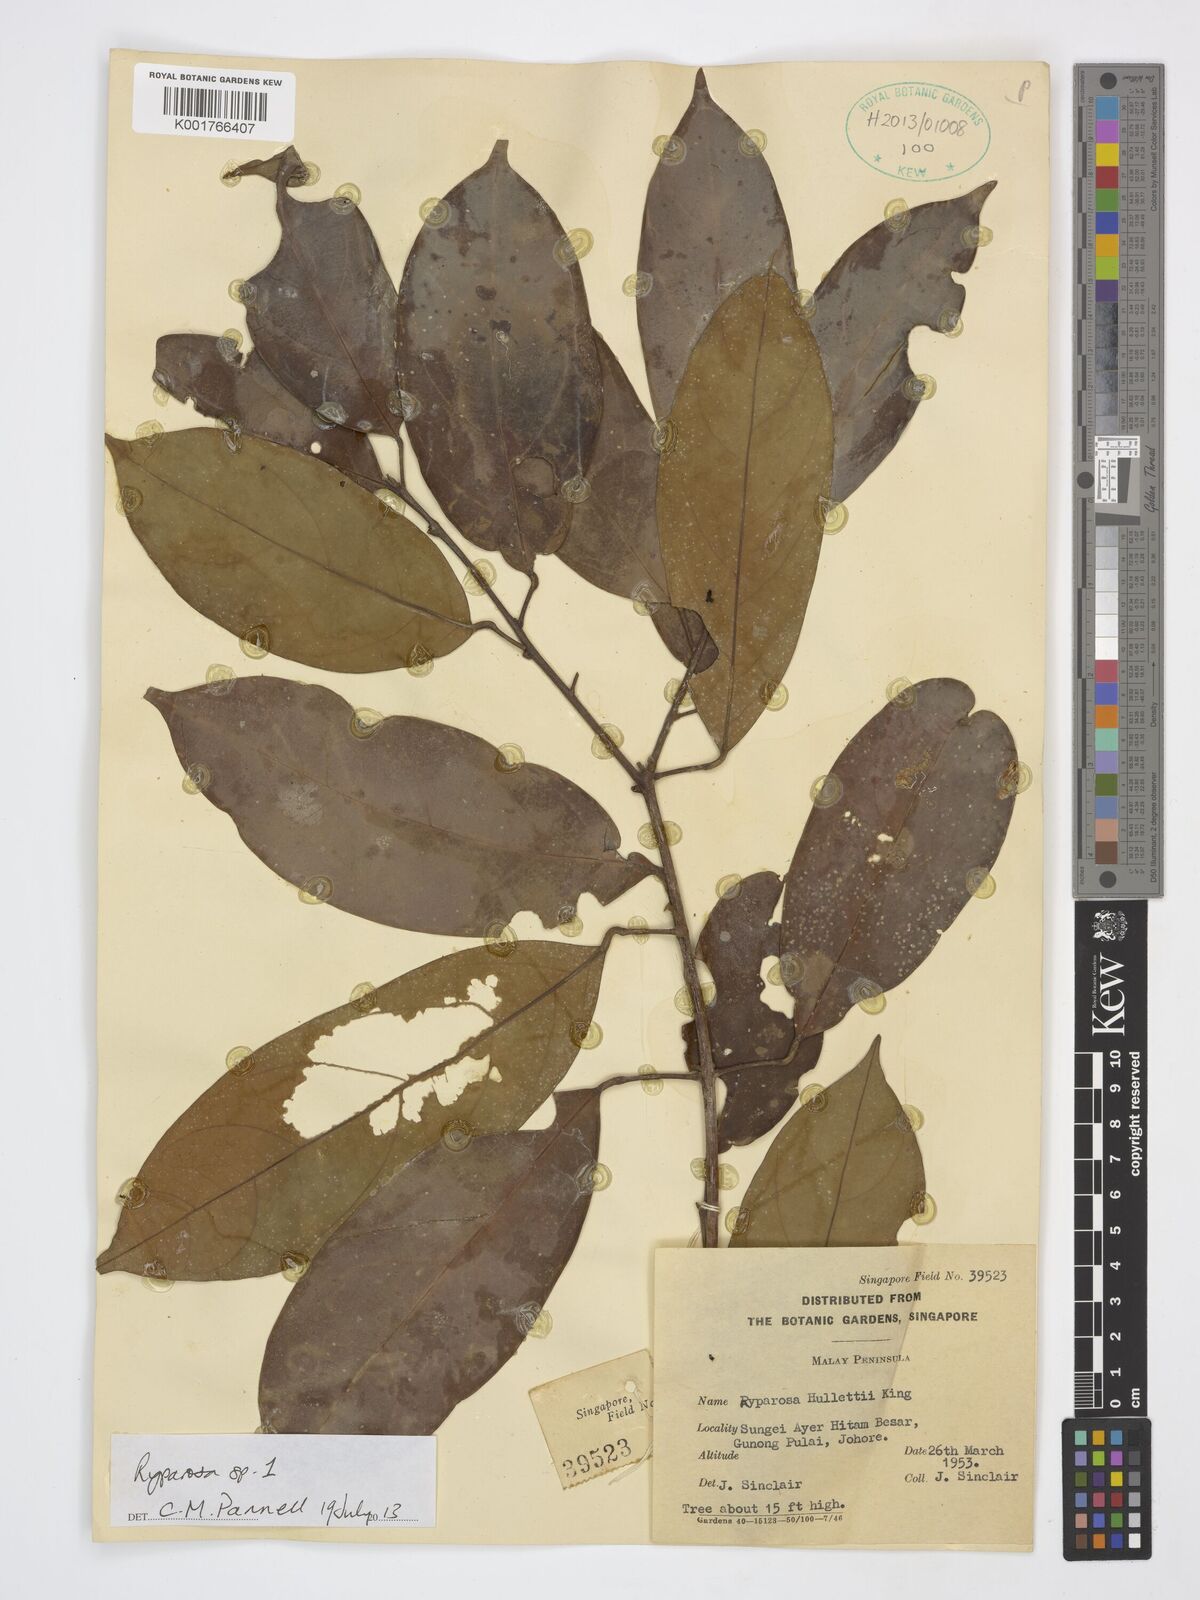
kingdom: Plantae
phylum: Tracheophyta
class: Magnoliopsida
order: Malpighiales
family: Achariaceae
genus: Ryparosa
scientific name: Ryparosa
